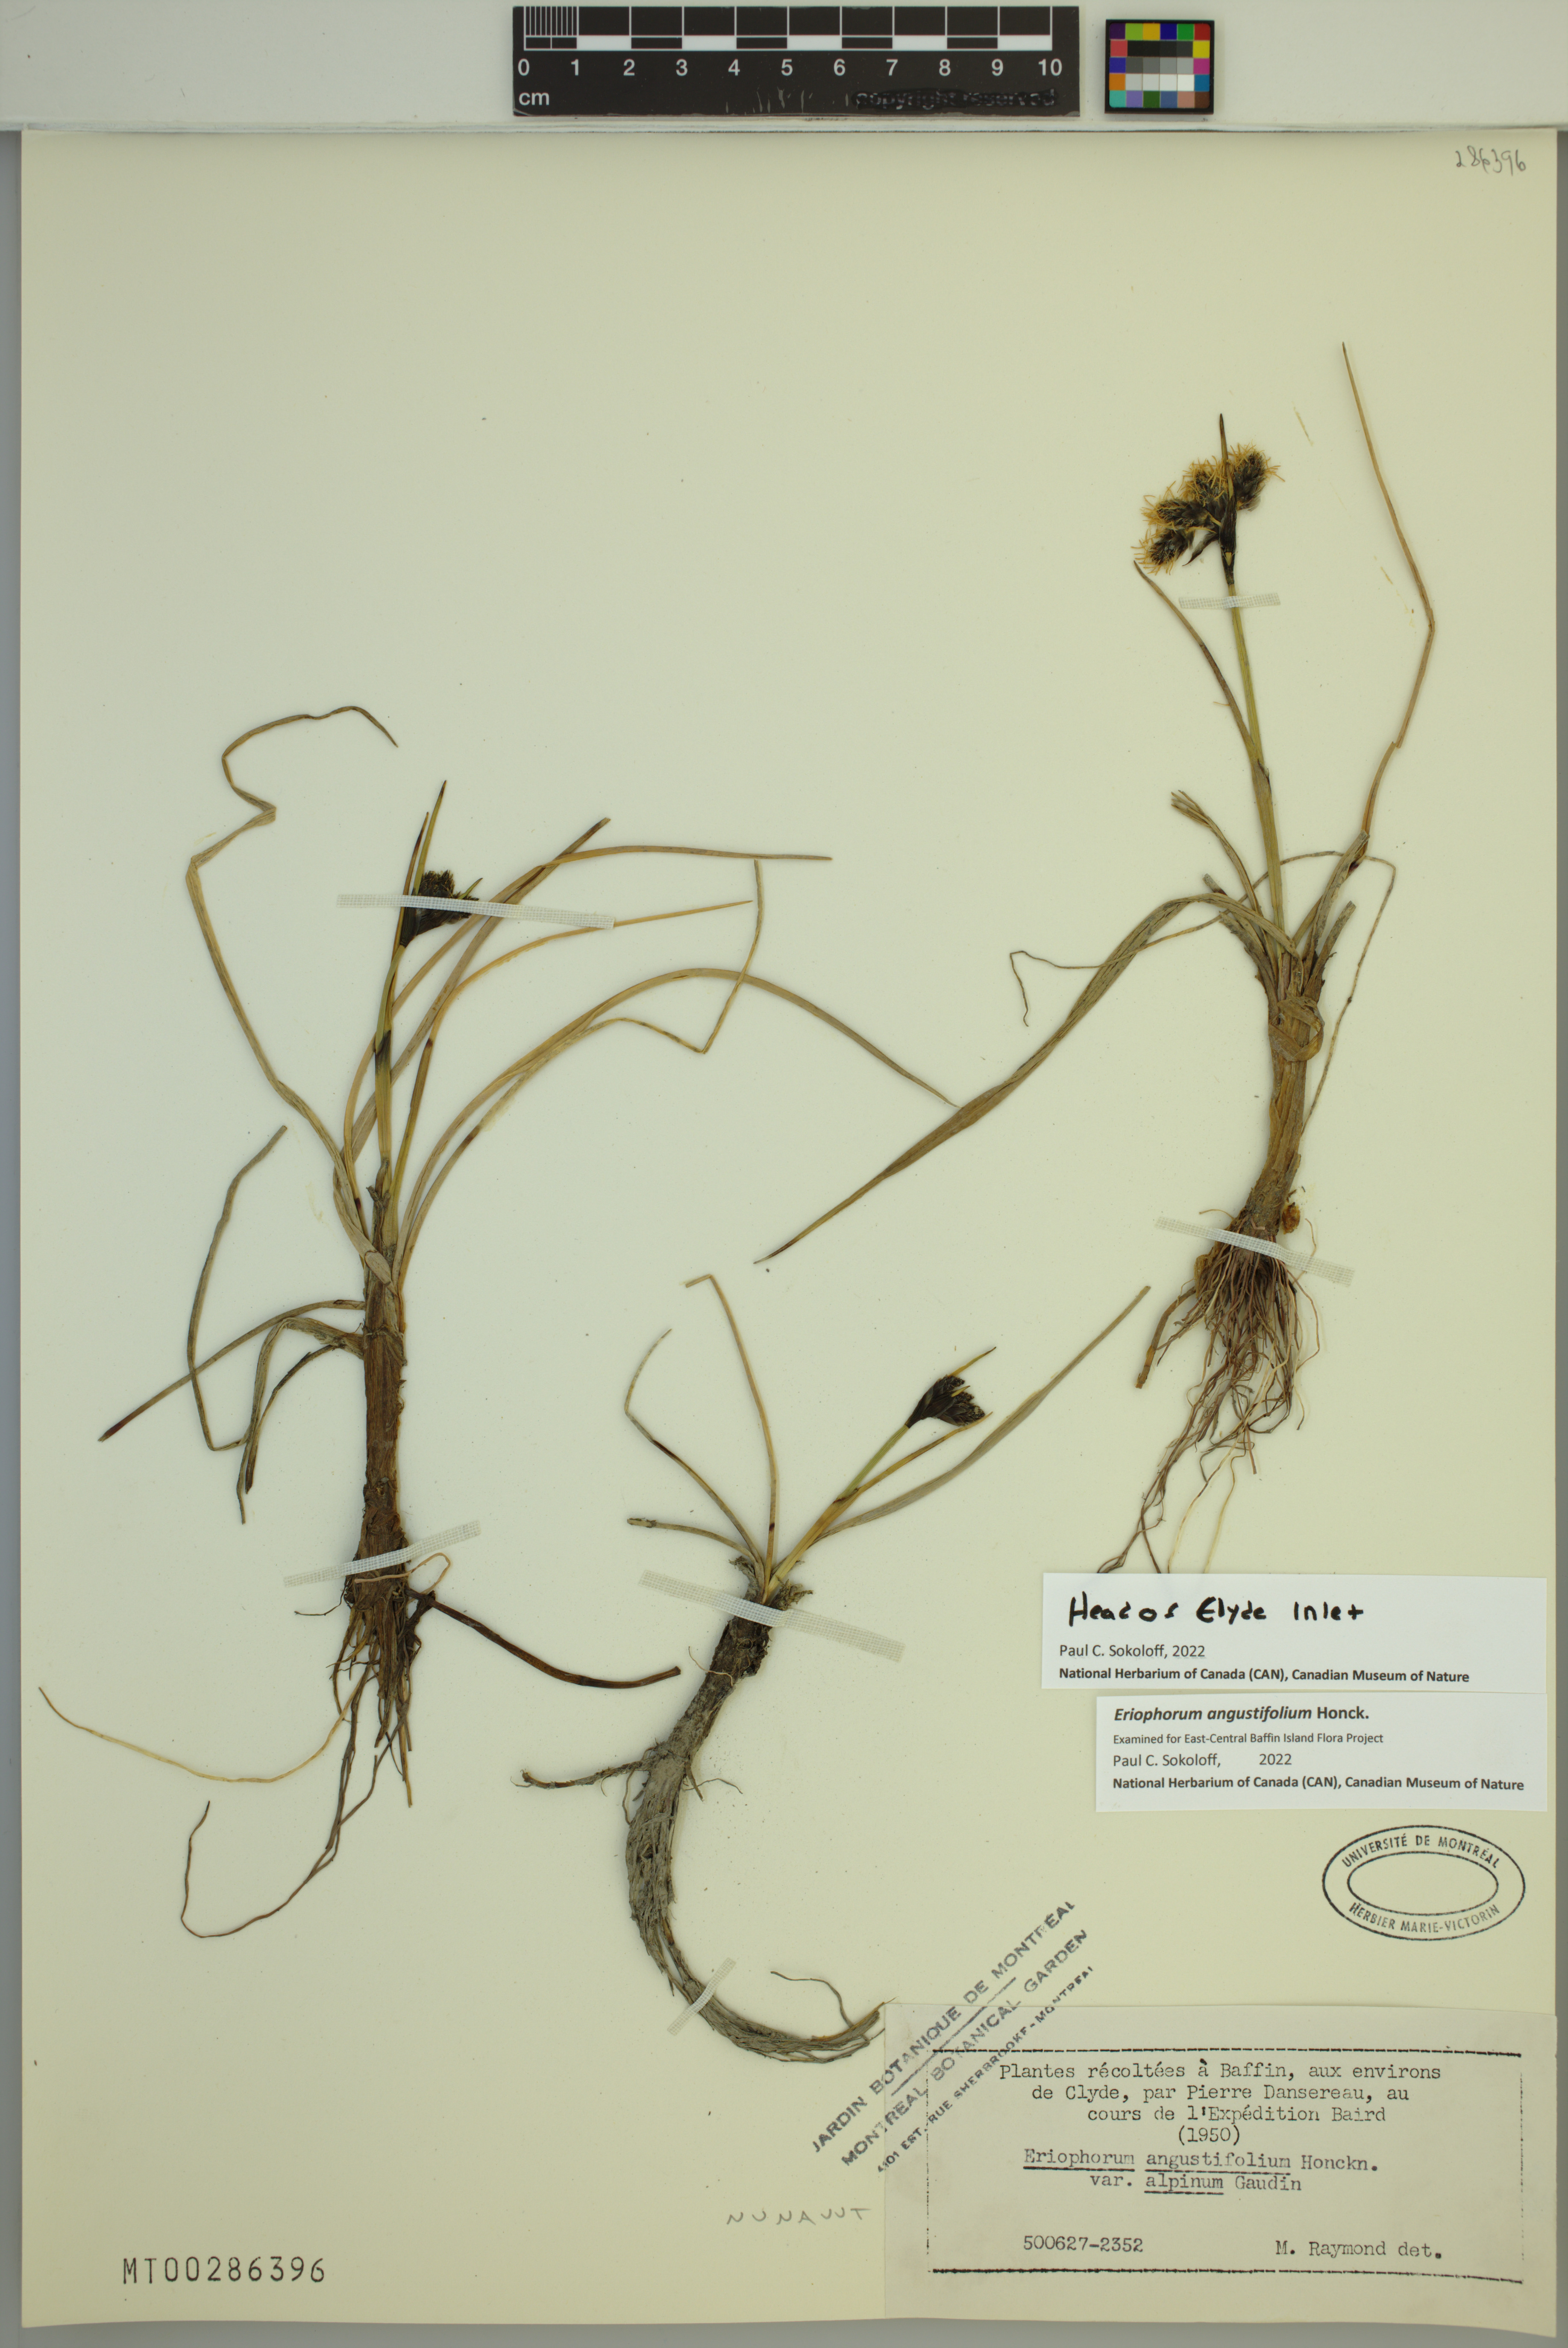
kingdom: Plantae
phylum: Tracheophyta
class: Liliopsida
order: Poales
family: Cyperaceae
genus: Eriophorum
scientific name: Eriophorum angustifolium
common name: Common cottongrass
